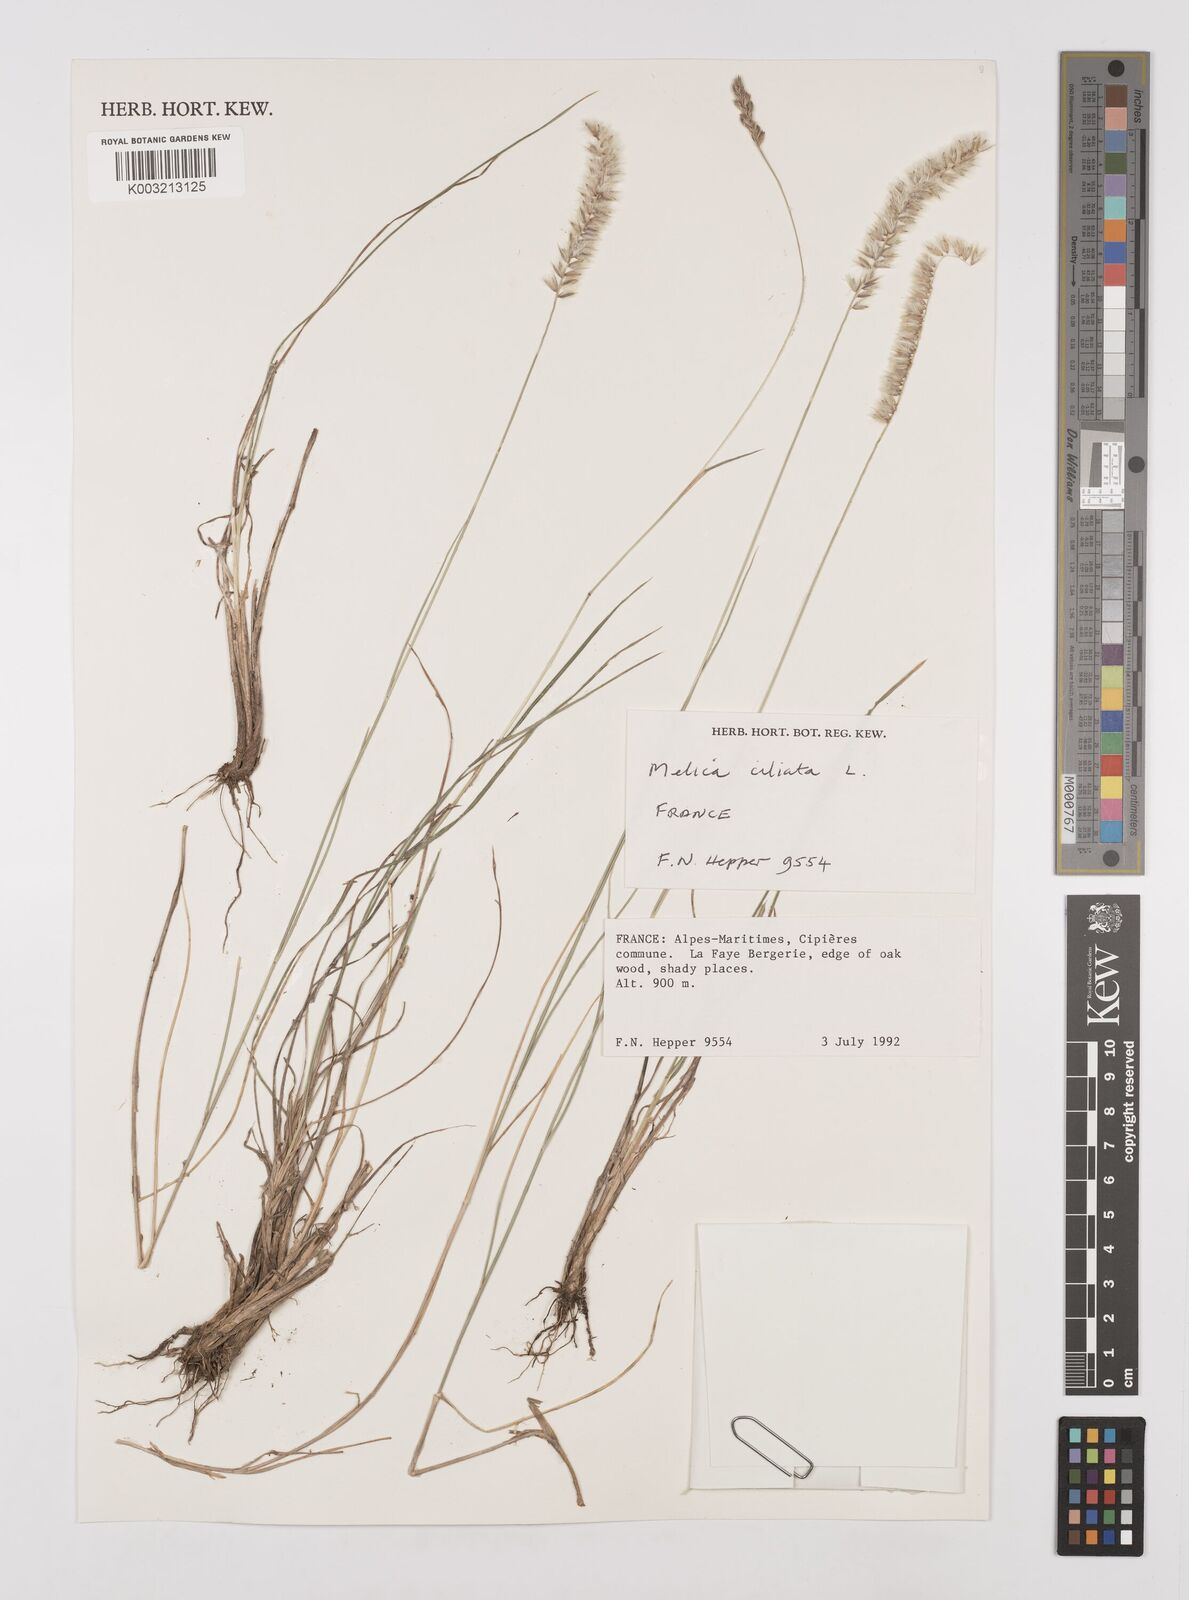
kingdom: Plantae
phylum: Tracheophyta
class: Liliopsida
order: Poales
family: Poaceae
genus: Melica
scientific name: Melica ciliata
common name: Hairy melicgrass
